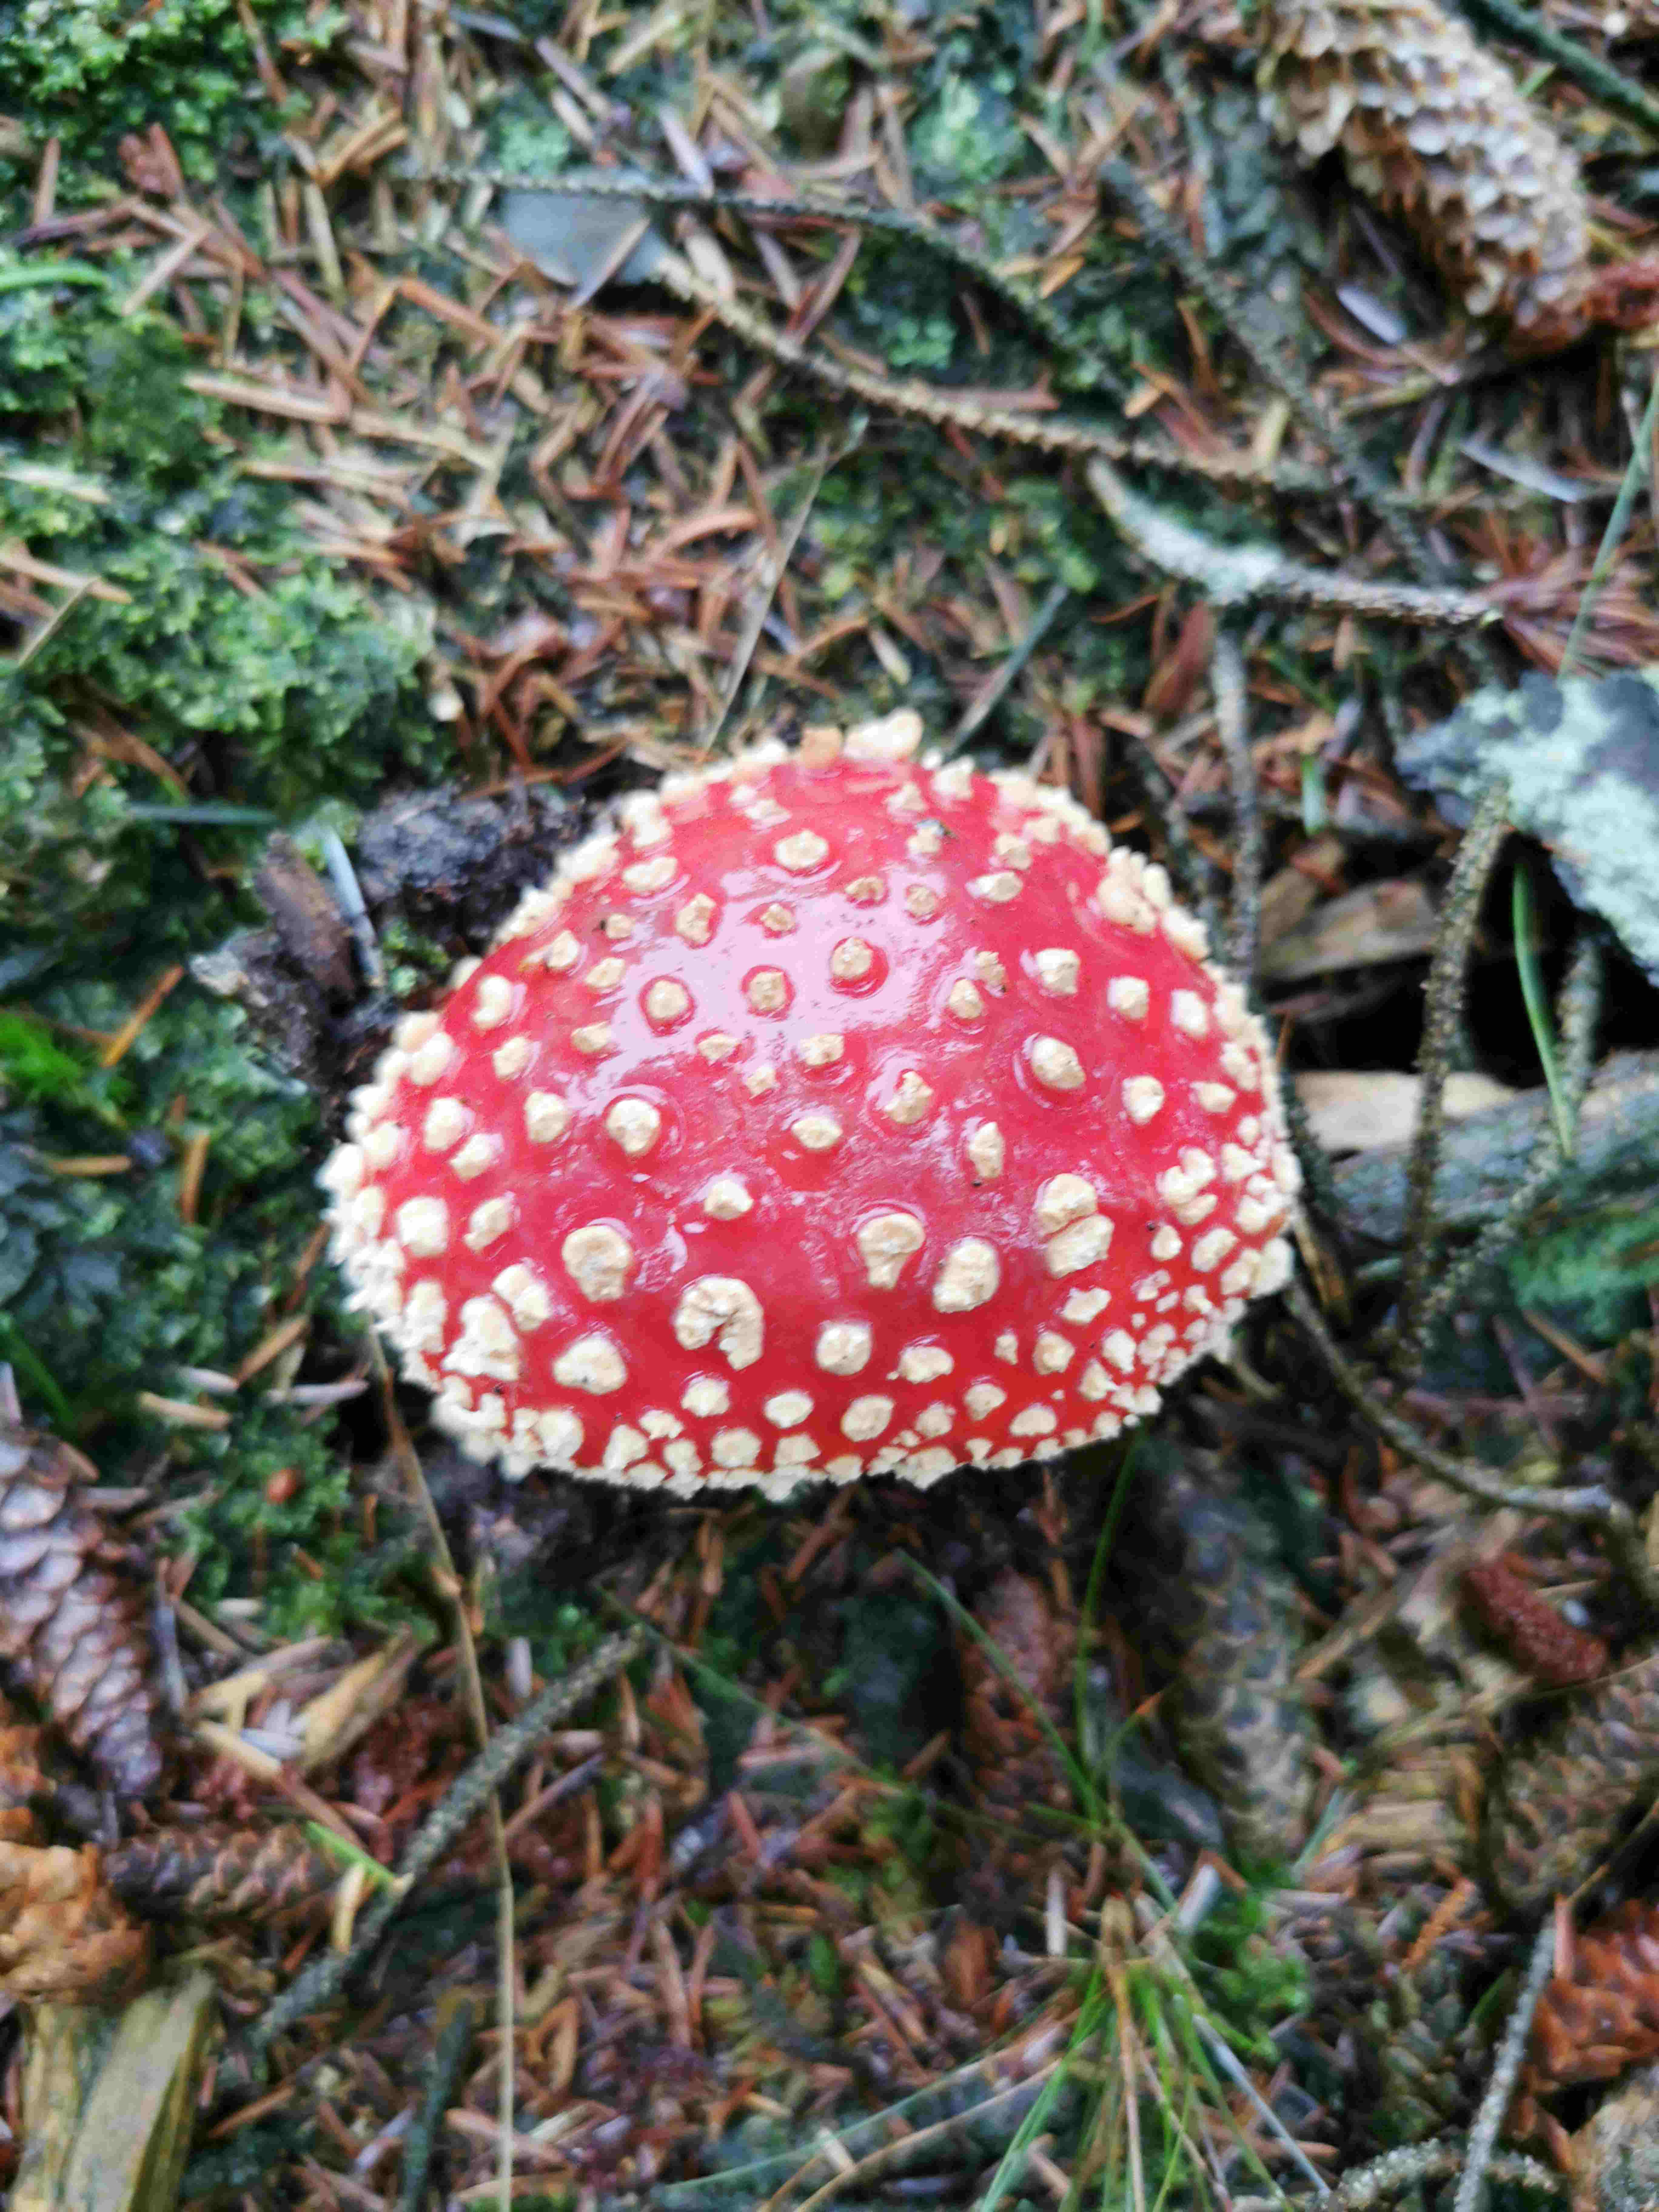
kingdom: Fungi
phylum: Basidiomycota
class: Agaricomycetes
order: Agaricales
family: Amanitaceae
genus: Amanita
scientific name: Amanita muscaria
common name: rød fluesvamp
